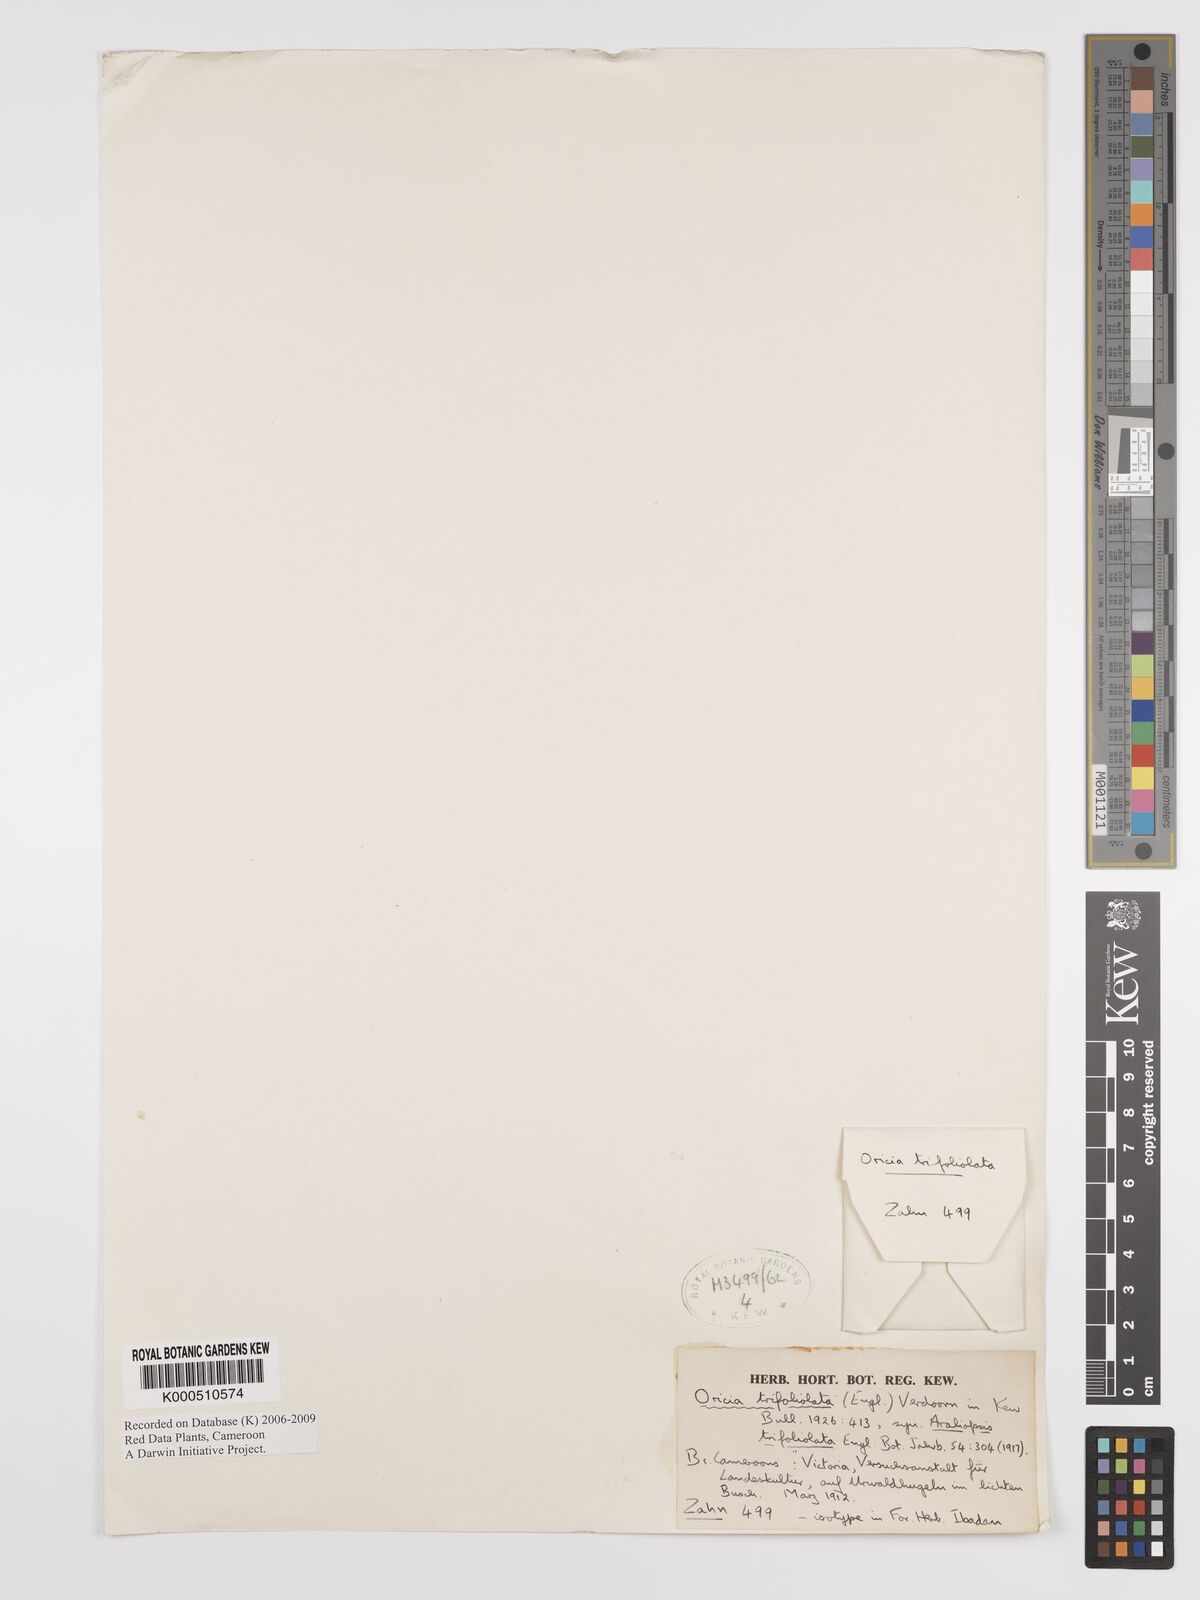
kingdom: Plantae
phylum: Tracheophyta
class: Magnoliopsida
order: Sapindales
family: Rutaceae
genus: Vepris
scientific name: Vepris trifoliolata
